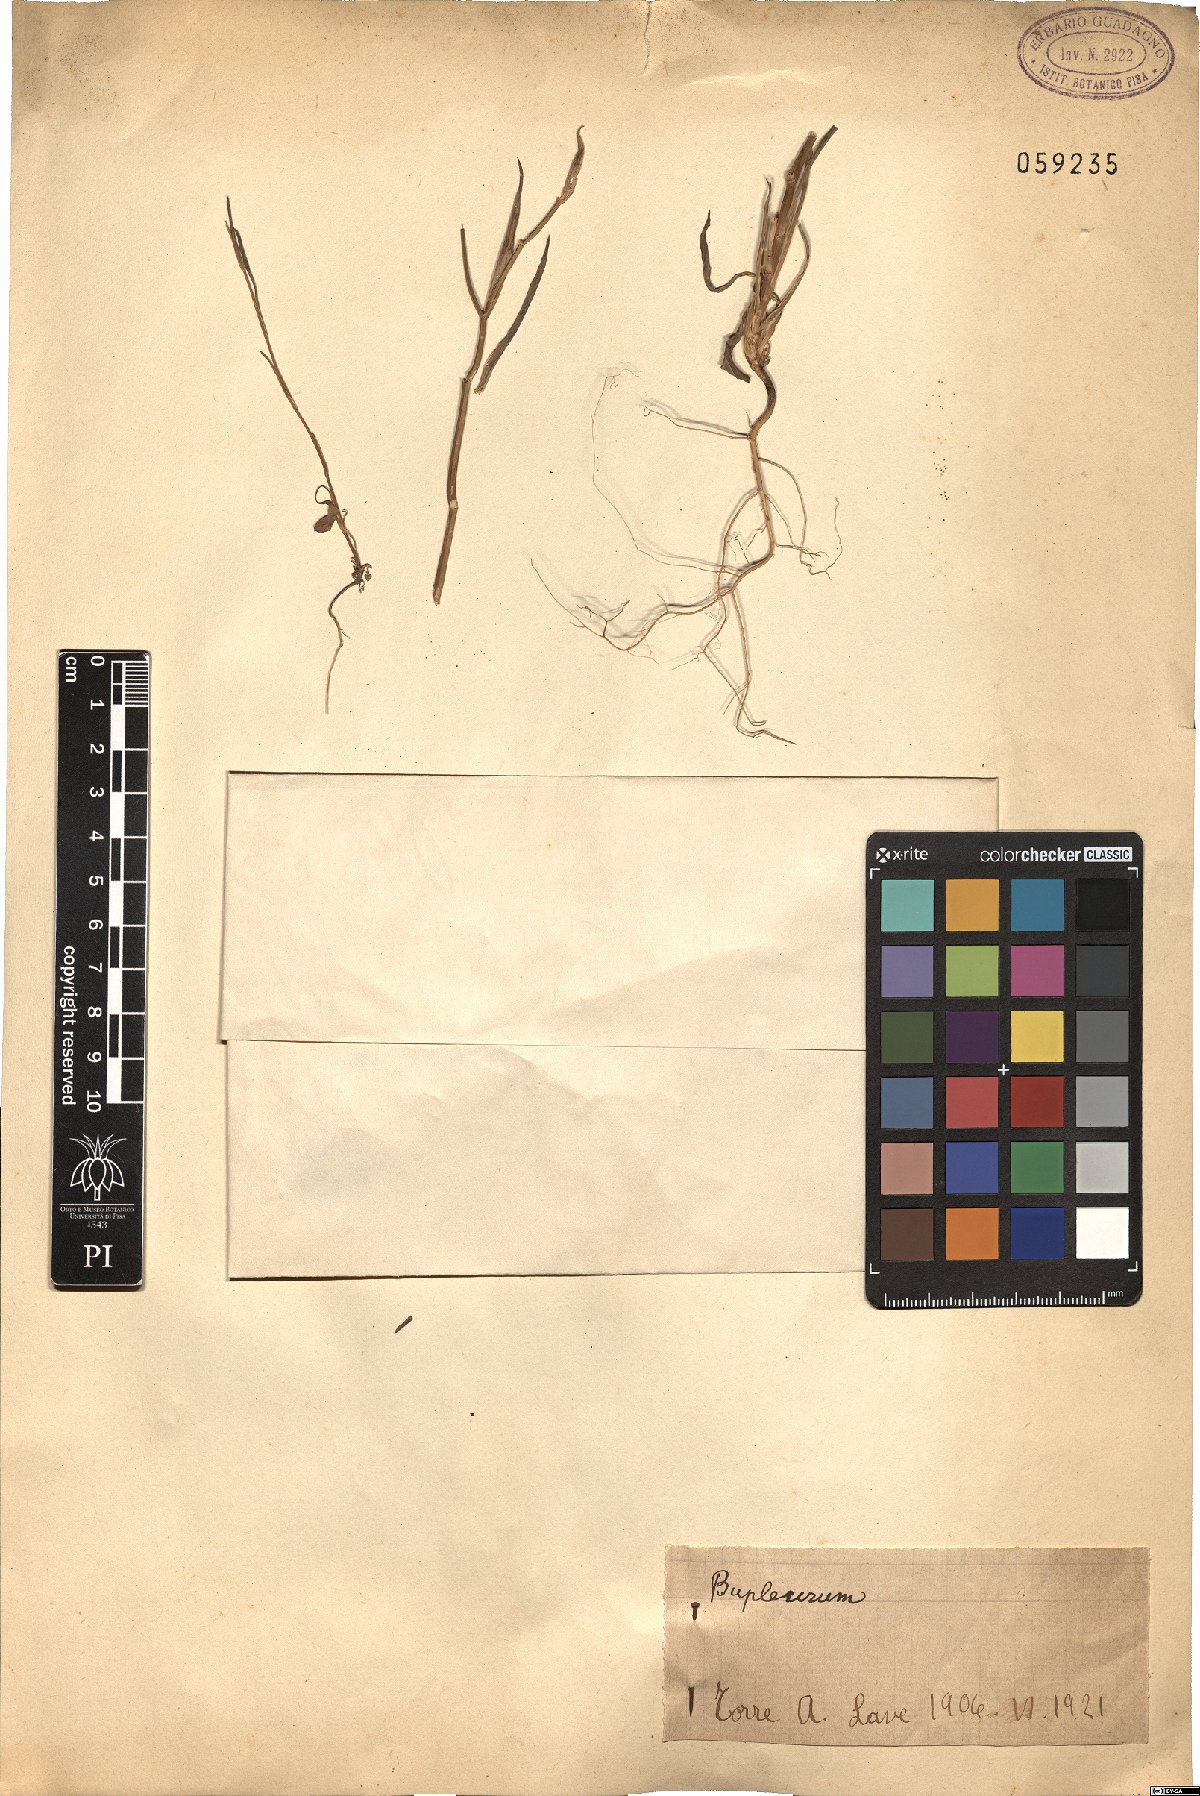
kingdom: Plantae
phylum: Tracheophyta
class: Magnoliopsida
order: Apiales
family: Apiaceae
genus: Bupleurum
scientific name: Bupleurum
